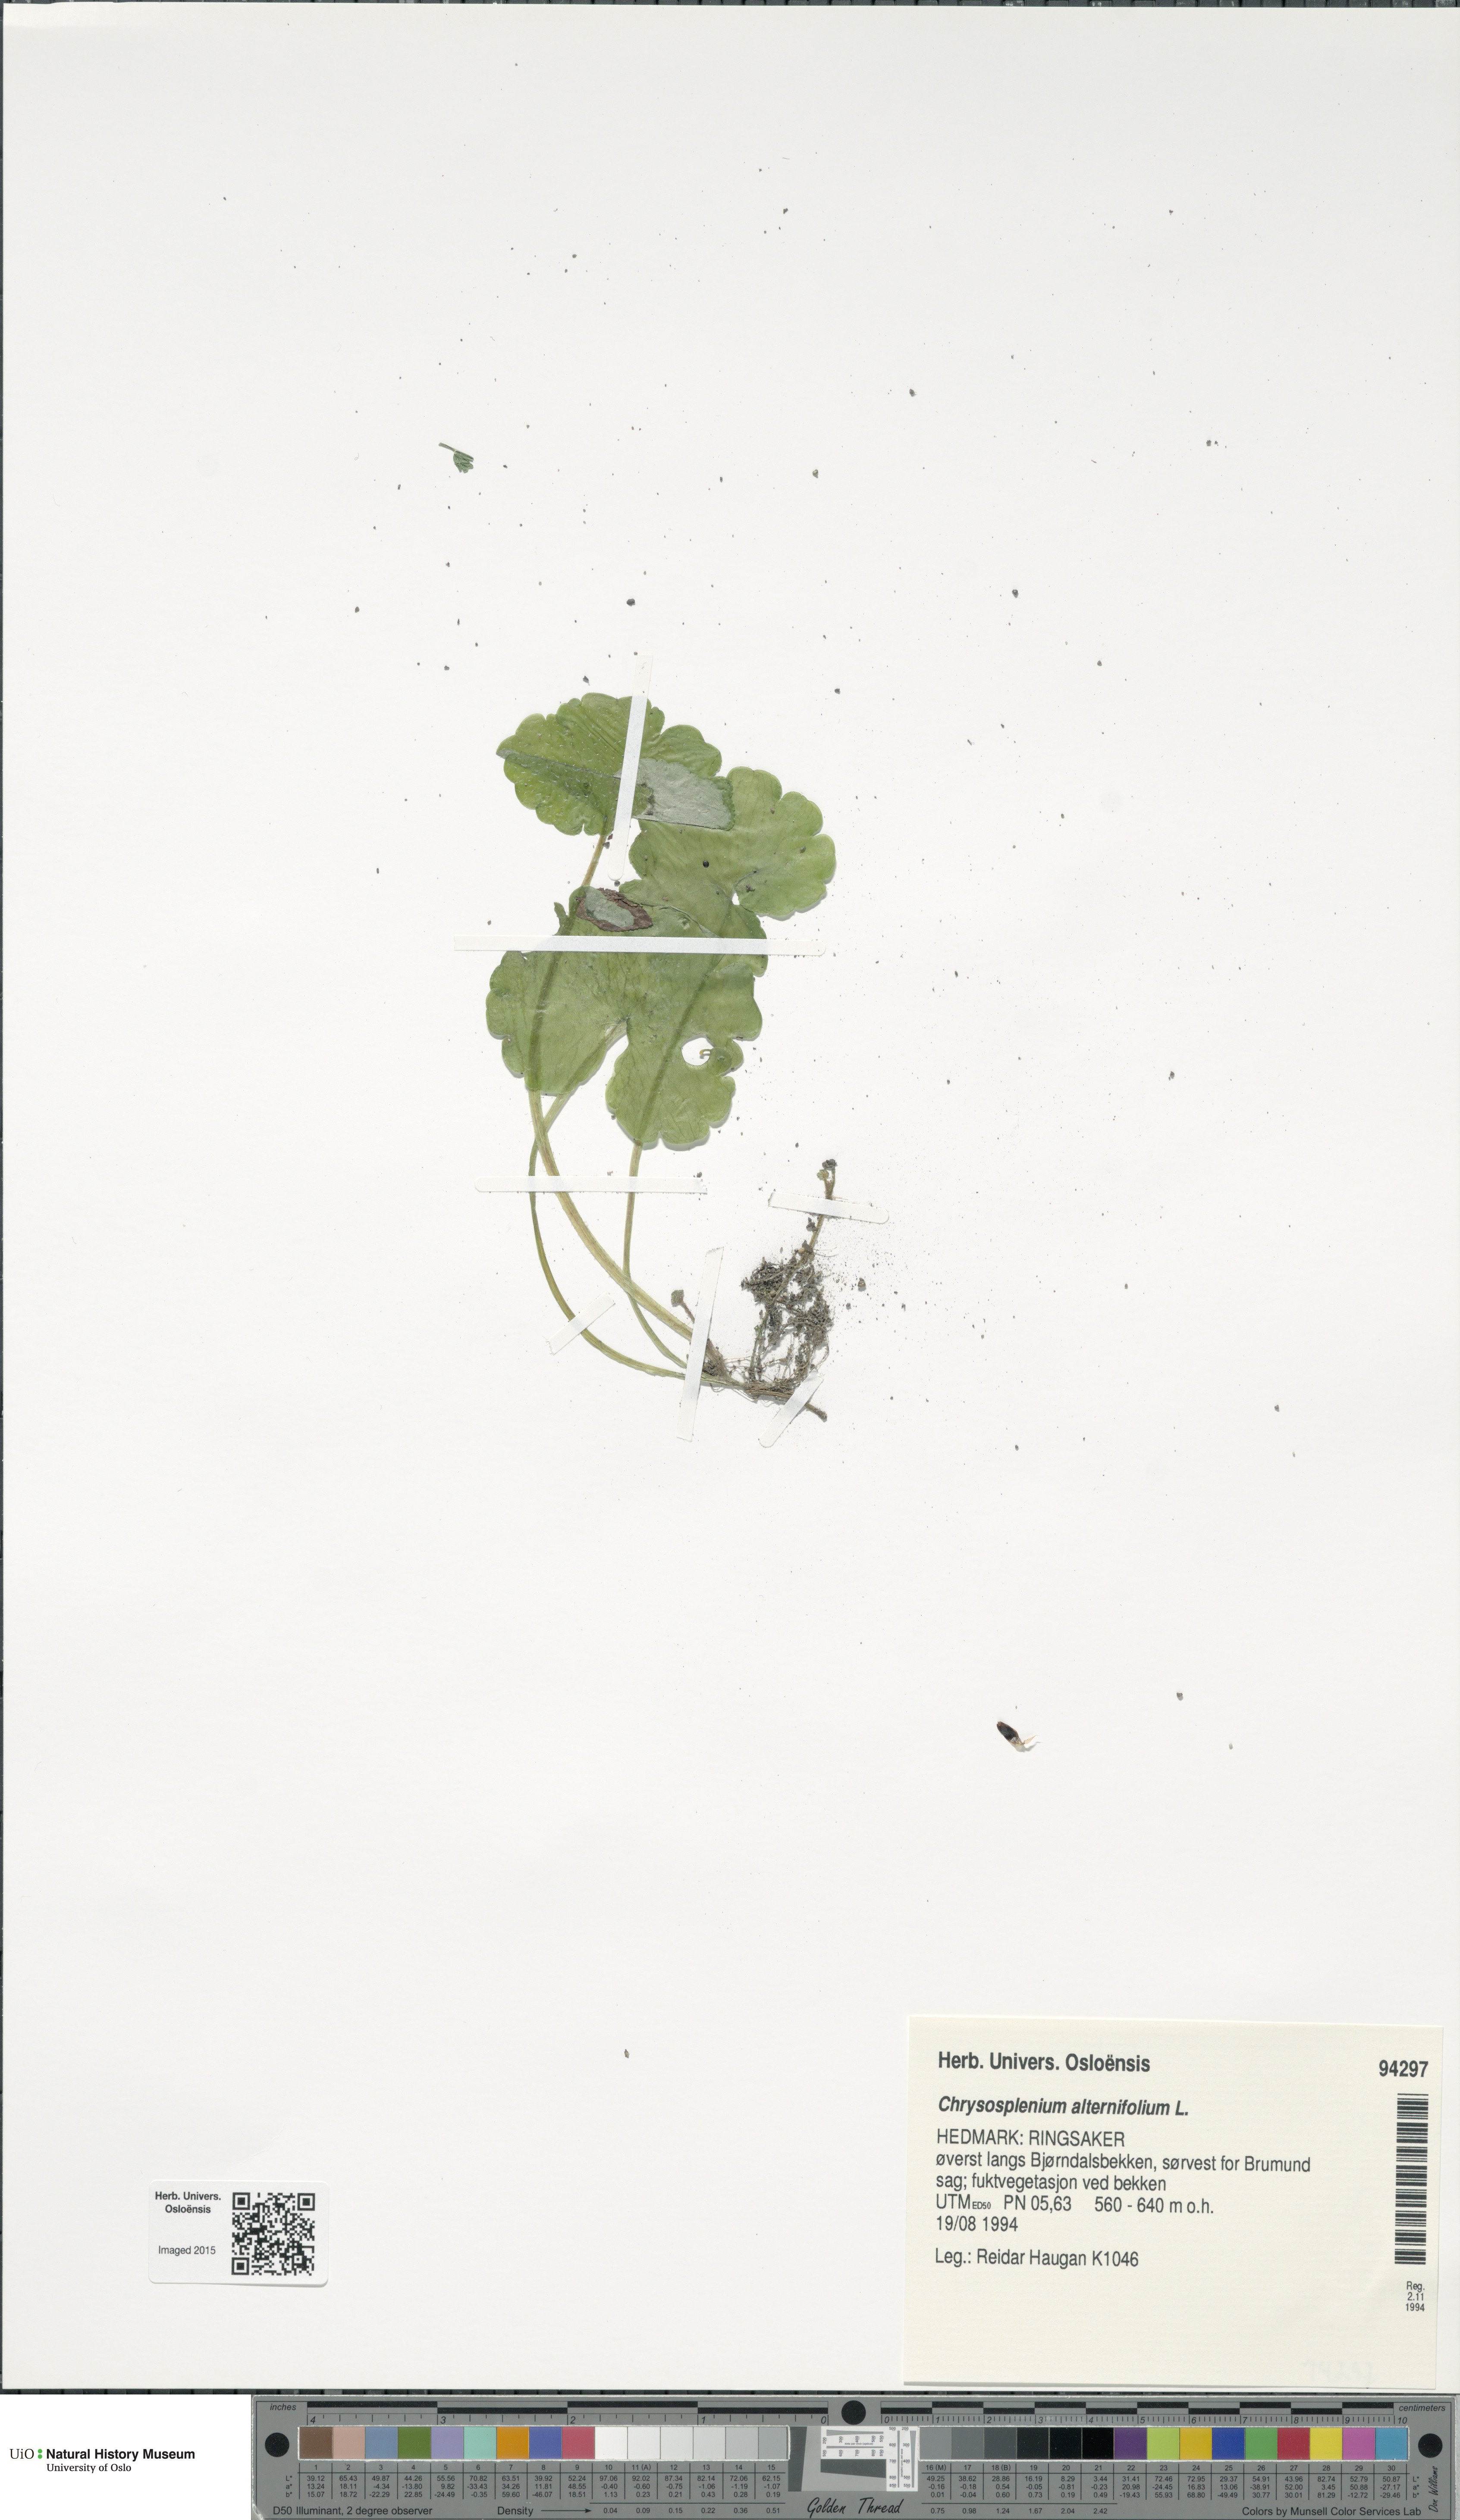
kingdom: Plantae
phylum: Tracheophyta
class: Magnoliopsida
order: Saxifragales
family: Saxifragaceae
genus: Chrysosplenium
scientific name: Chrysosplenium alternifolium
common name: Alternate-leaved golden-saxifrage
